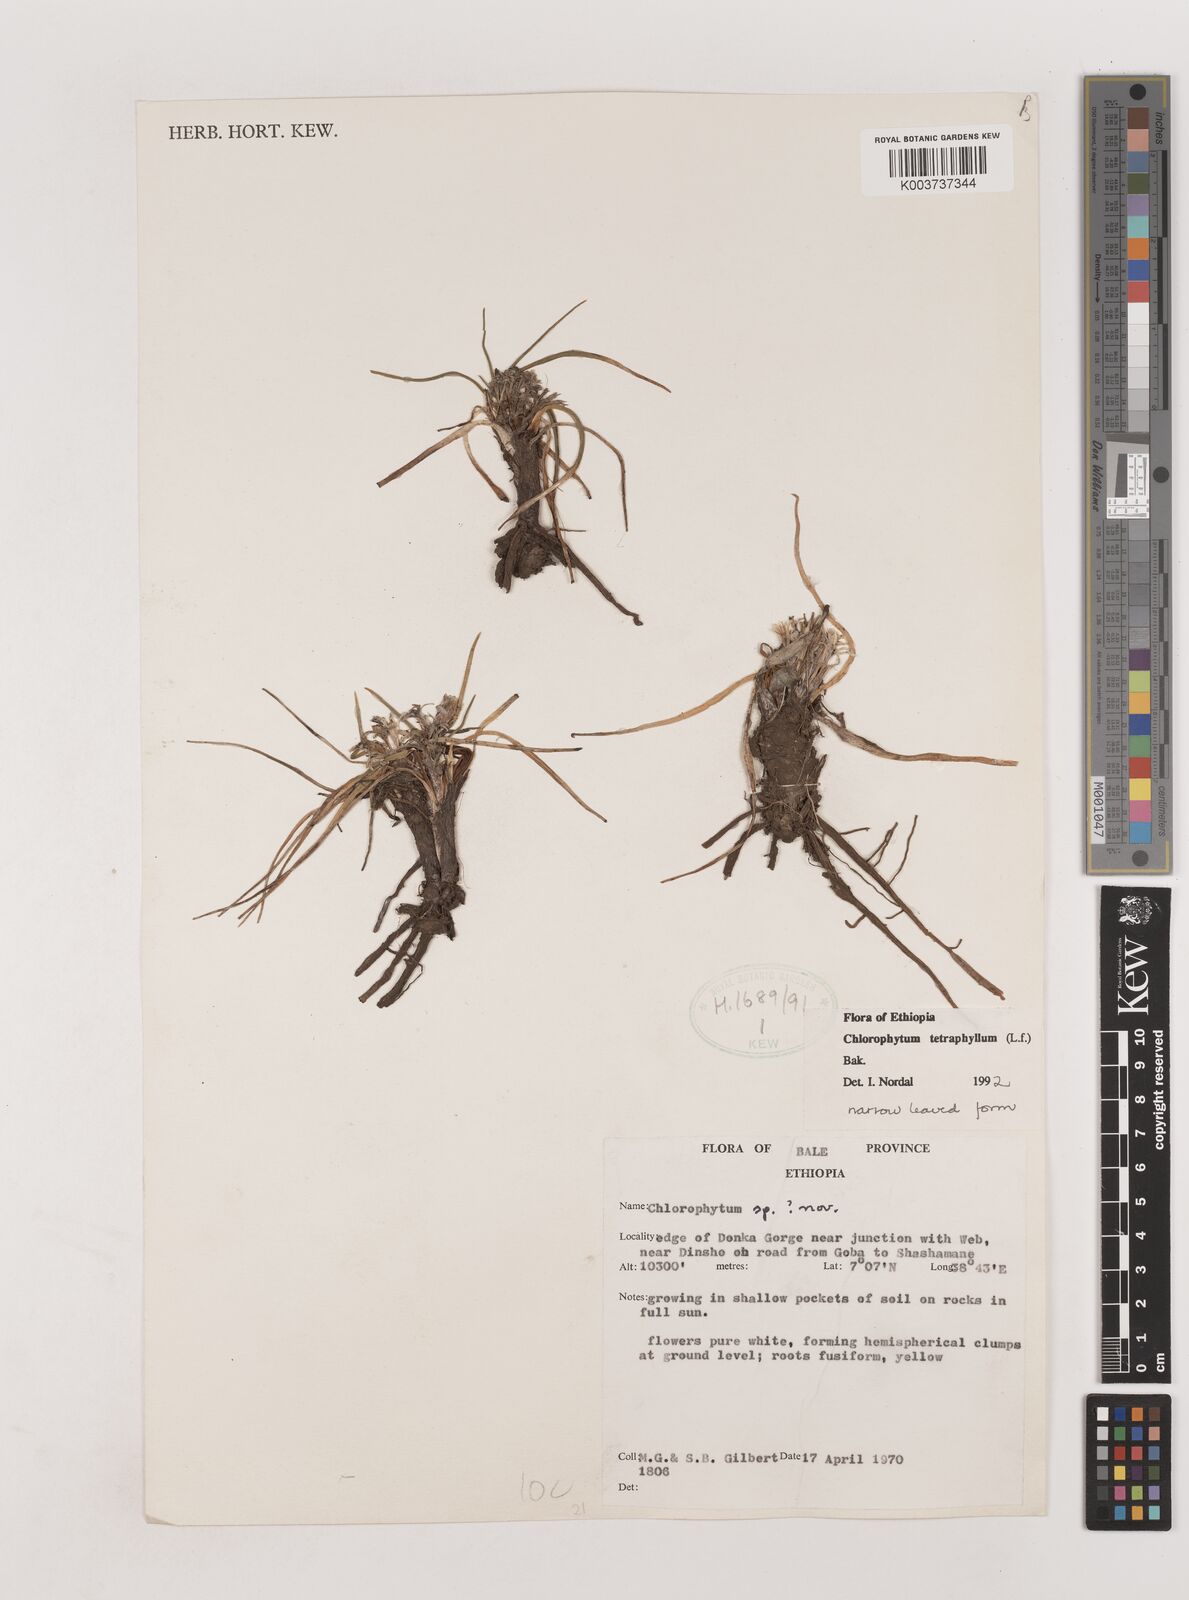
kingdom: Plantae
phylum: Tracheophyta
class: Liliopsida
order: Asparagales
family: Asparagaceae
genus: Chlorophytum
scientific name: Chlorophytum tetraphyllum
